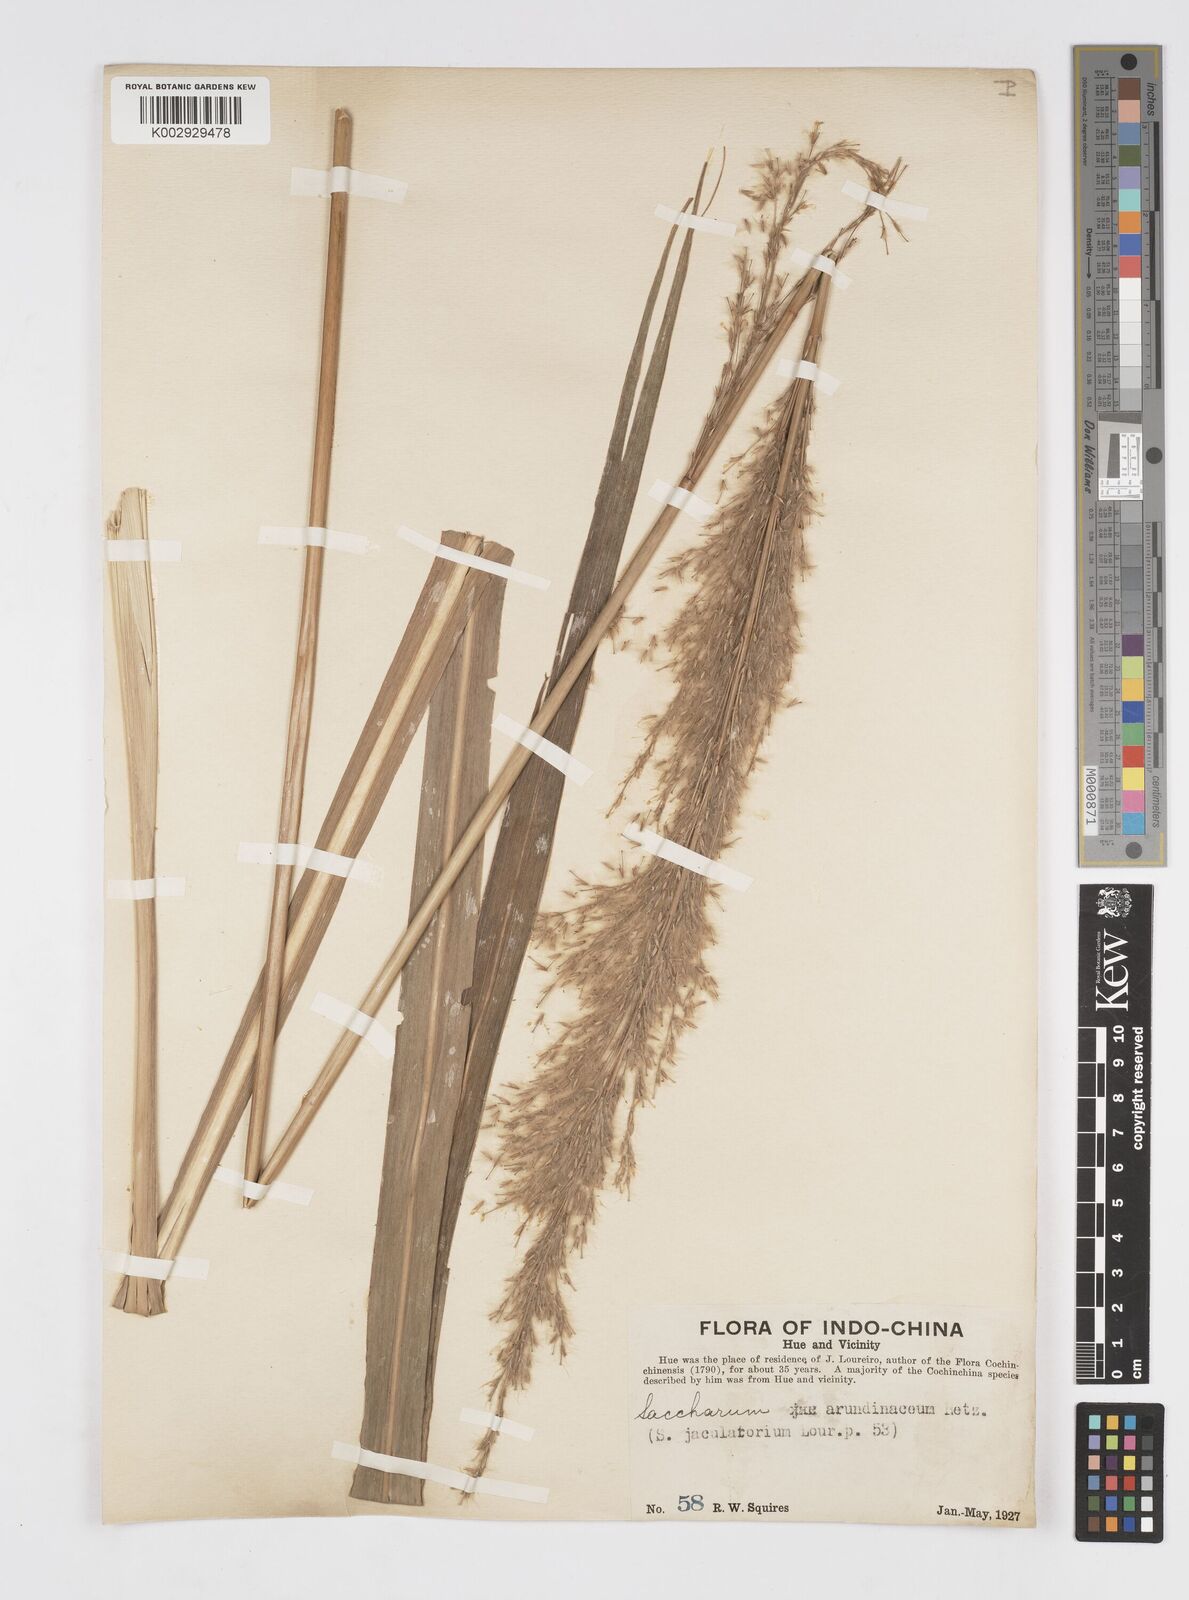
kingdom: Plantae
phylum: Tracheophyta
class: Liliopsida
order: Poales
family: Poaceae
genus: Tripidium
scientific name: Tripidium arundinaceum
